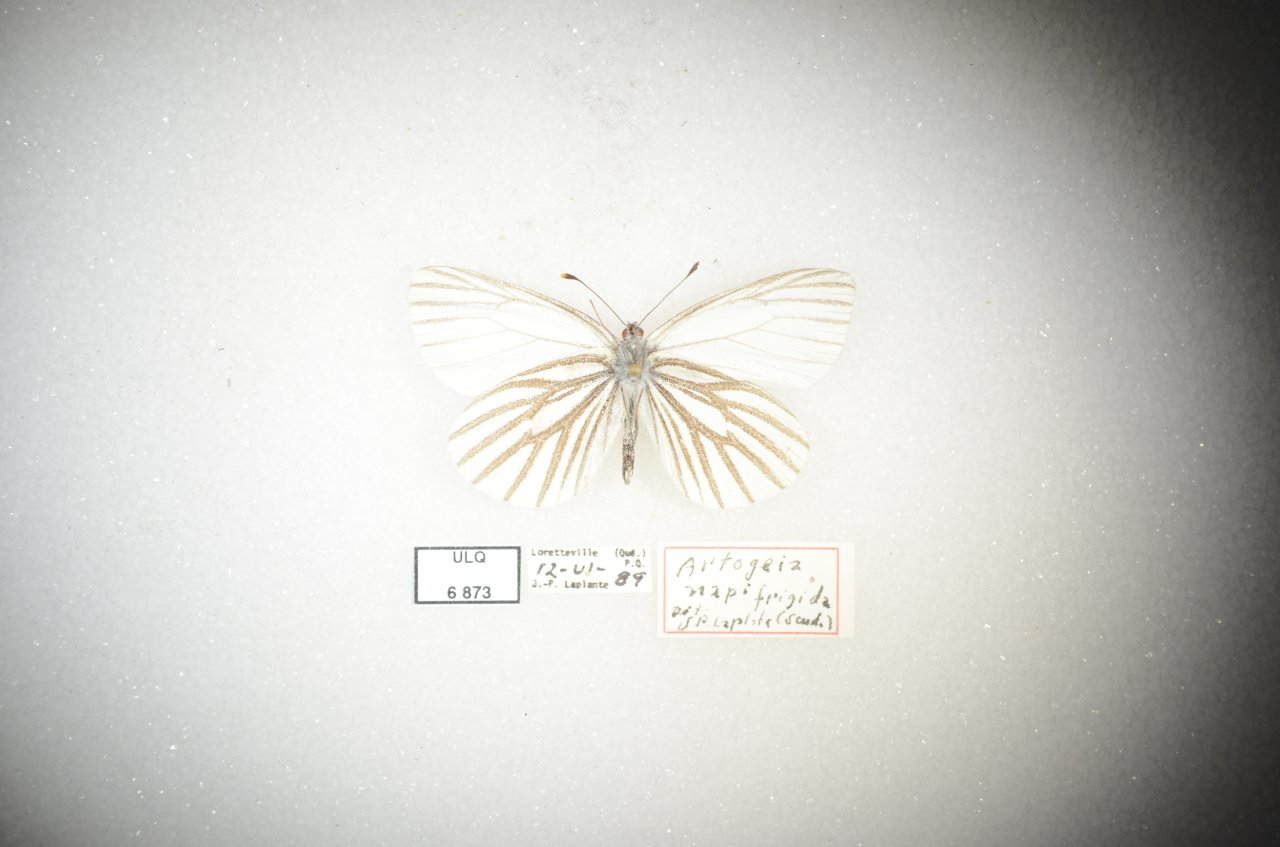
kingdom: Animalia
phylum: Arthropoda
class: Insecta
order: Lepidoptera
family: Pieridae
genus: Pieris
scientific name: Pieris oleracea
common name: Mustard White
